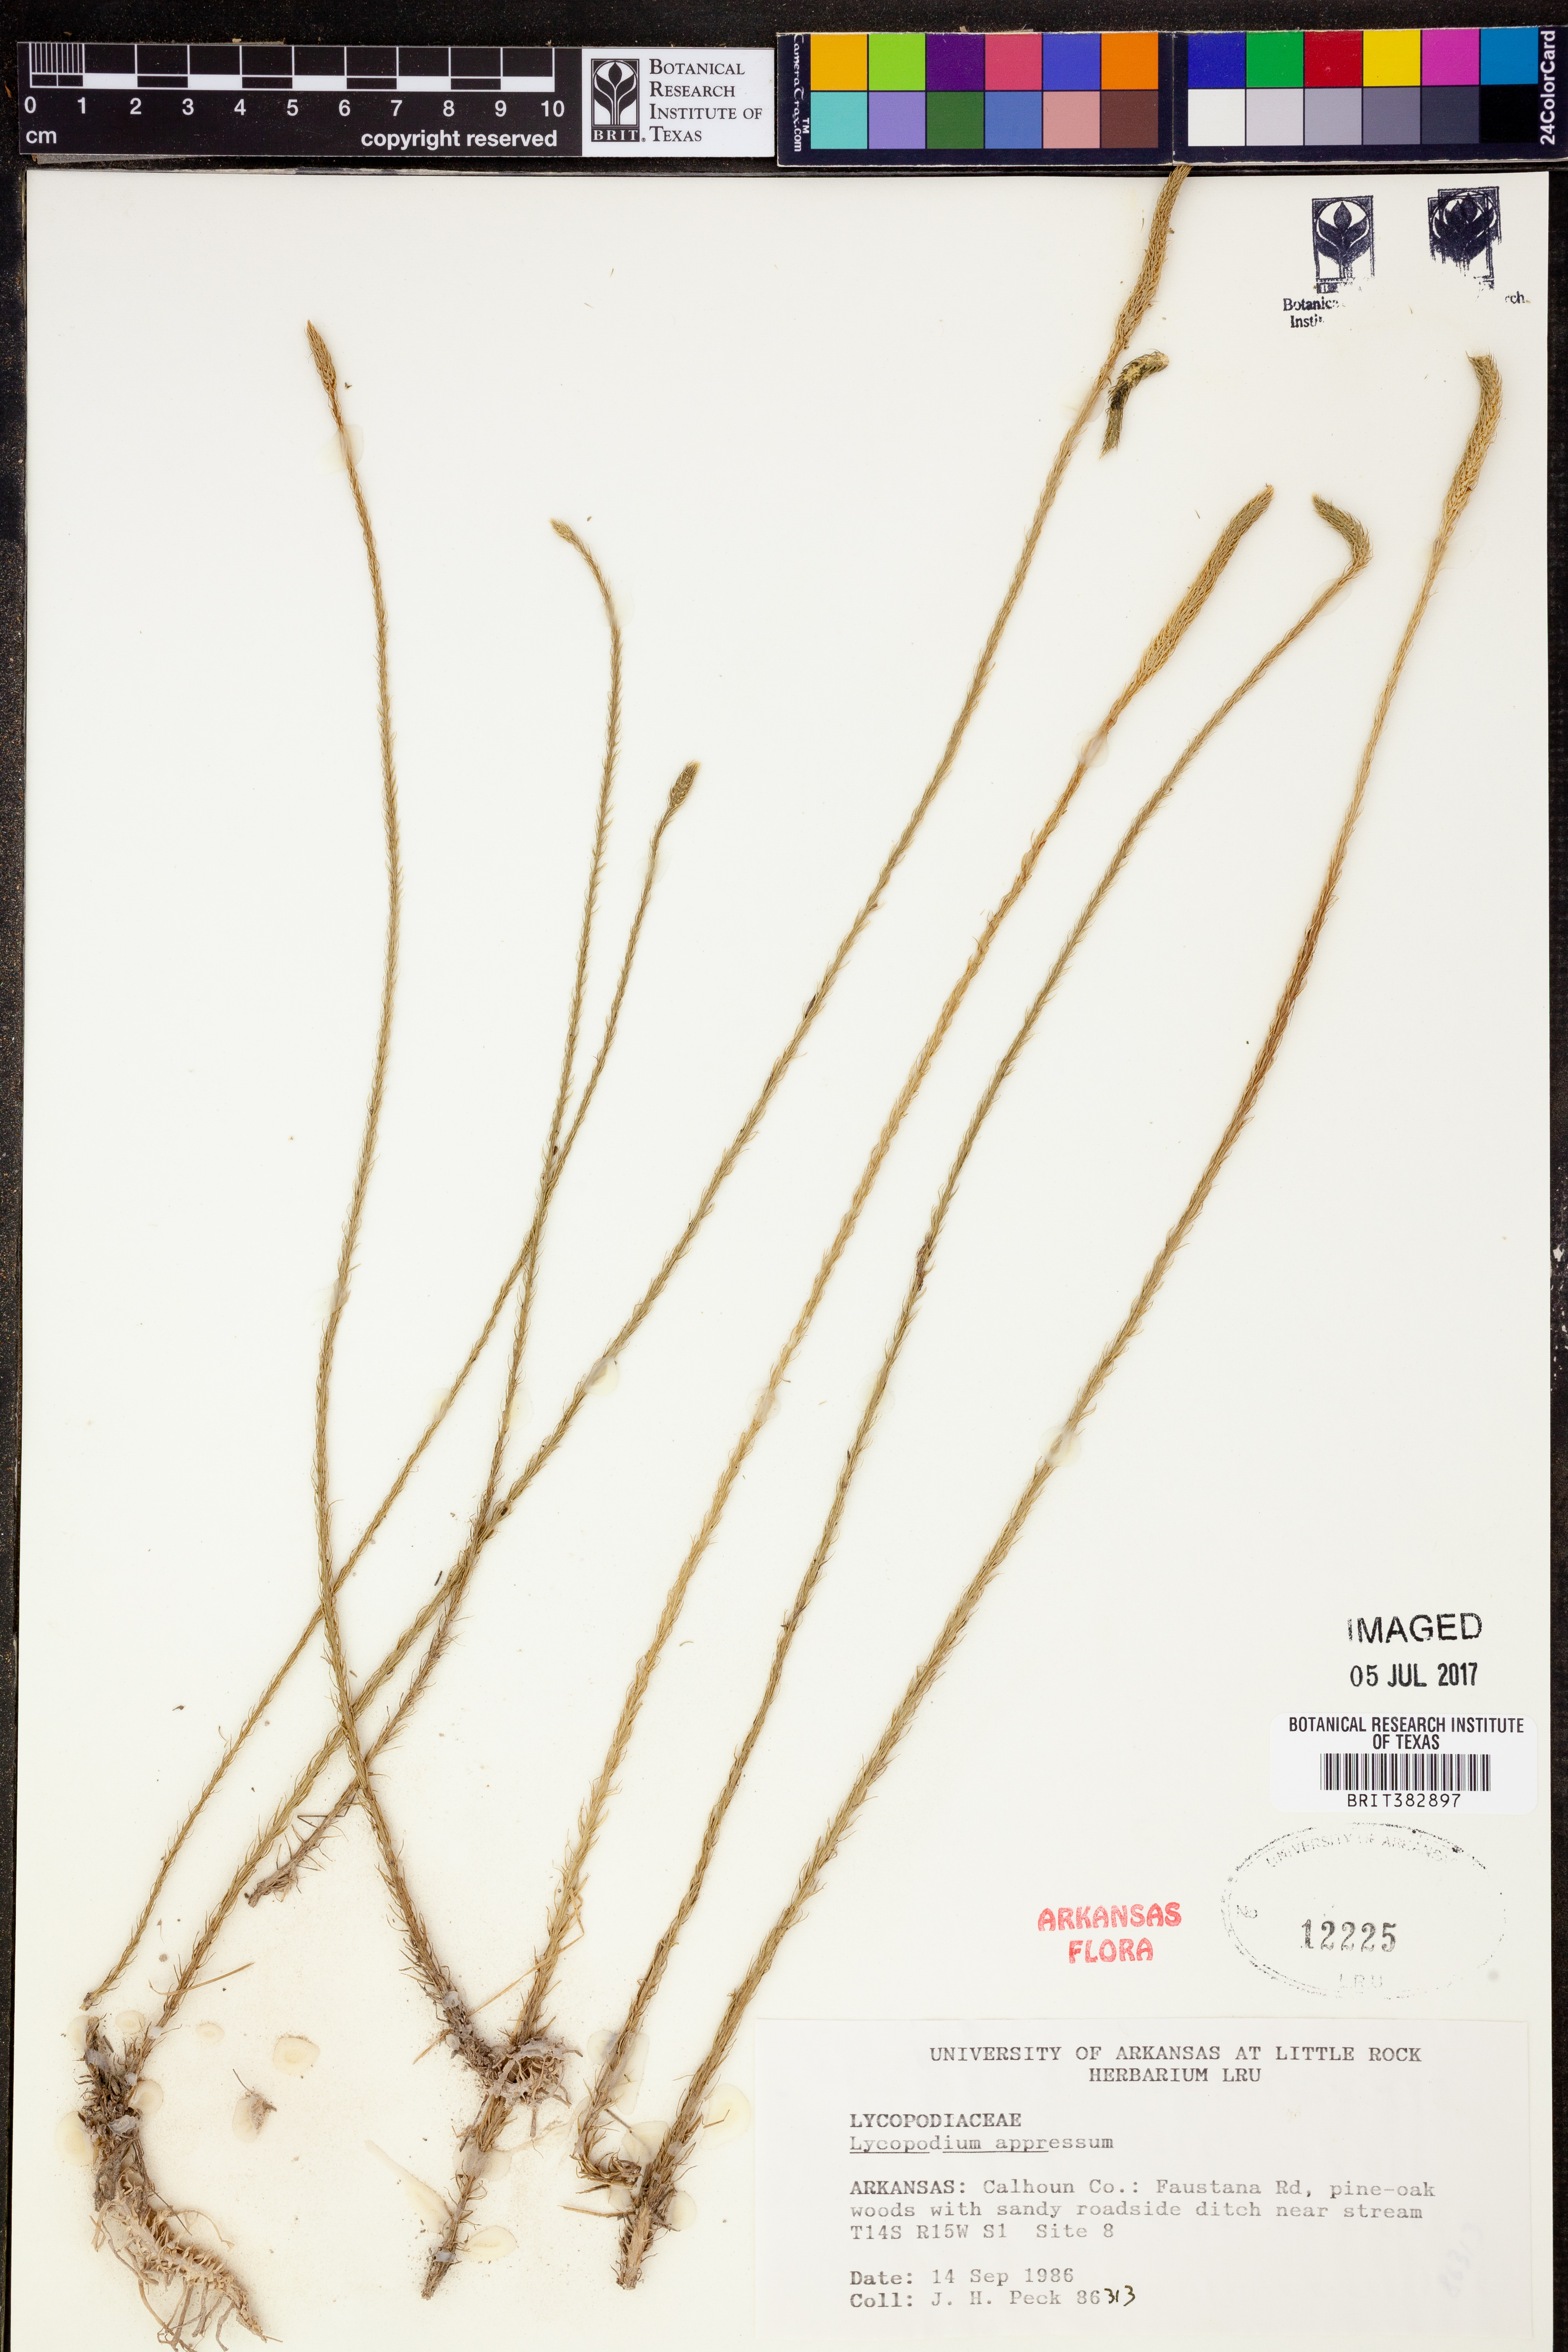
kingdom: Plantae
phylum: Tracheophyta
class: Lycopodiopsida
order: Lycopodiales
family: Lycopodiaceae
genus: Lycopodiella
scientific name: Lycopodiella appressa
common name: Appressed bog clubmoss
